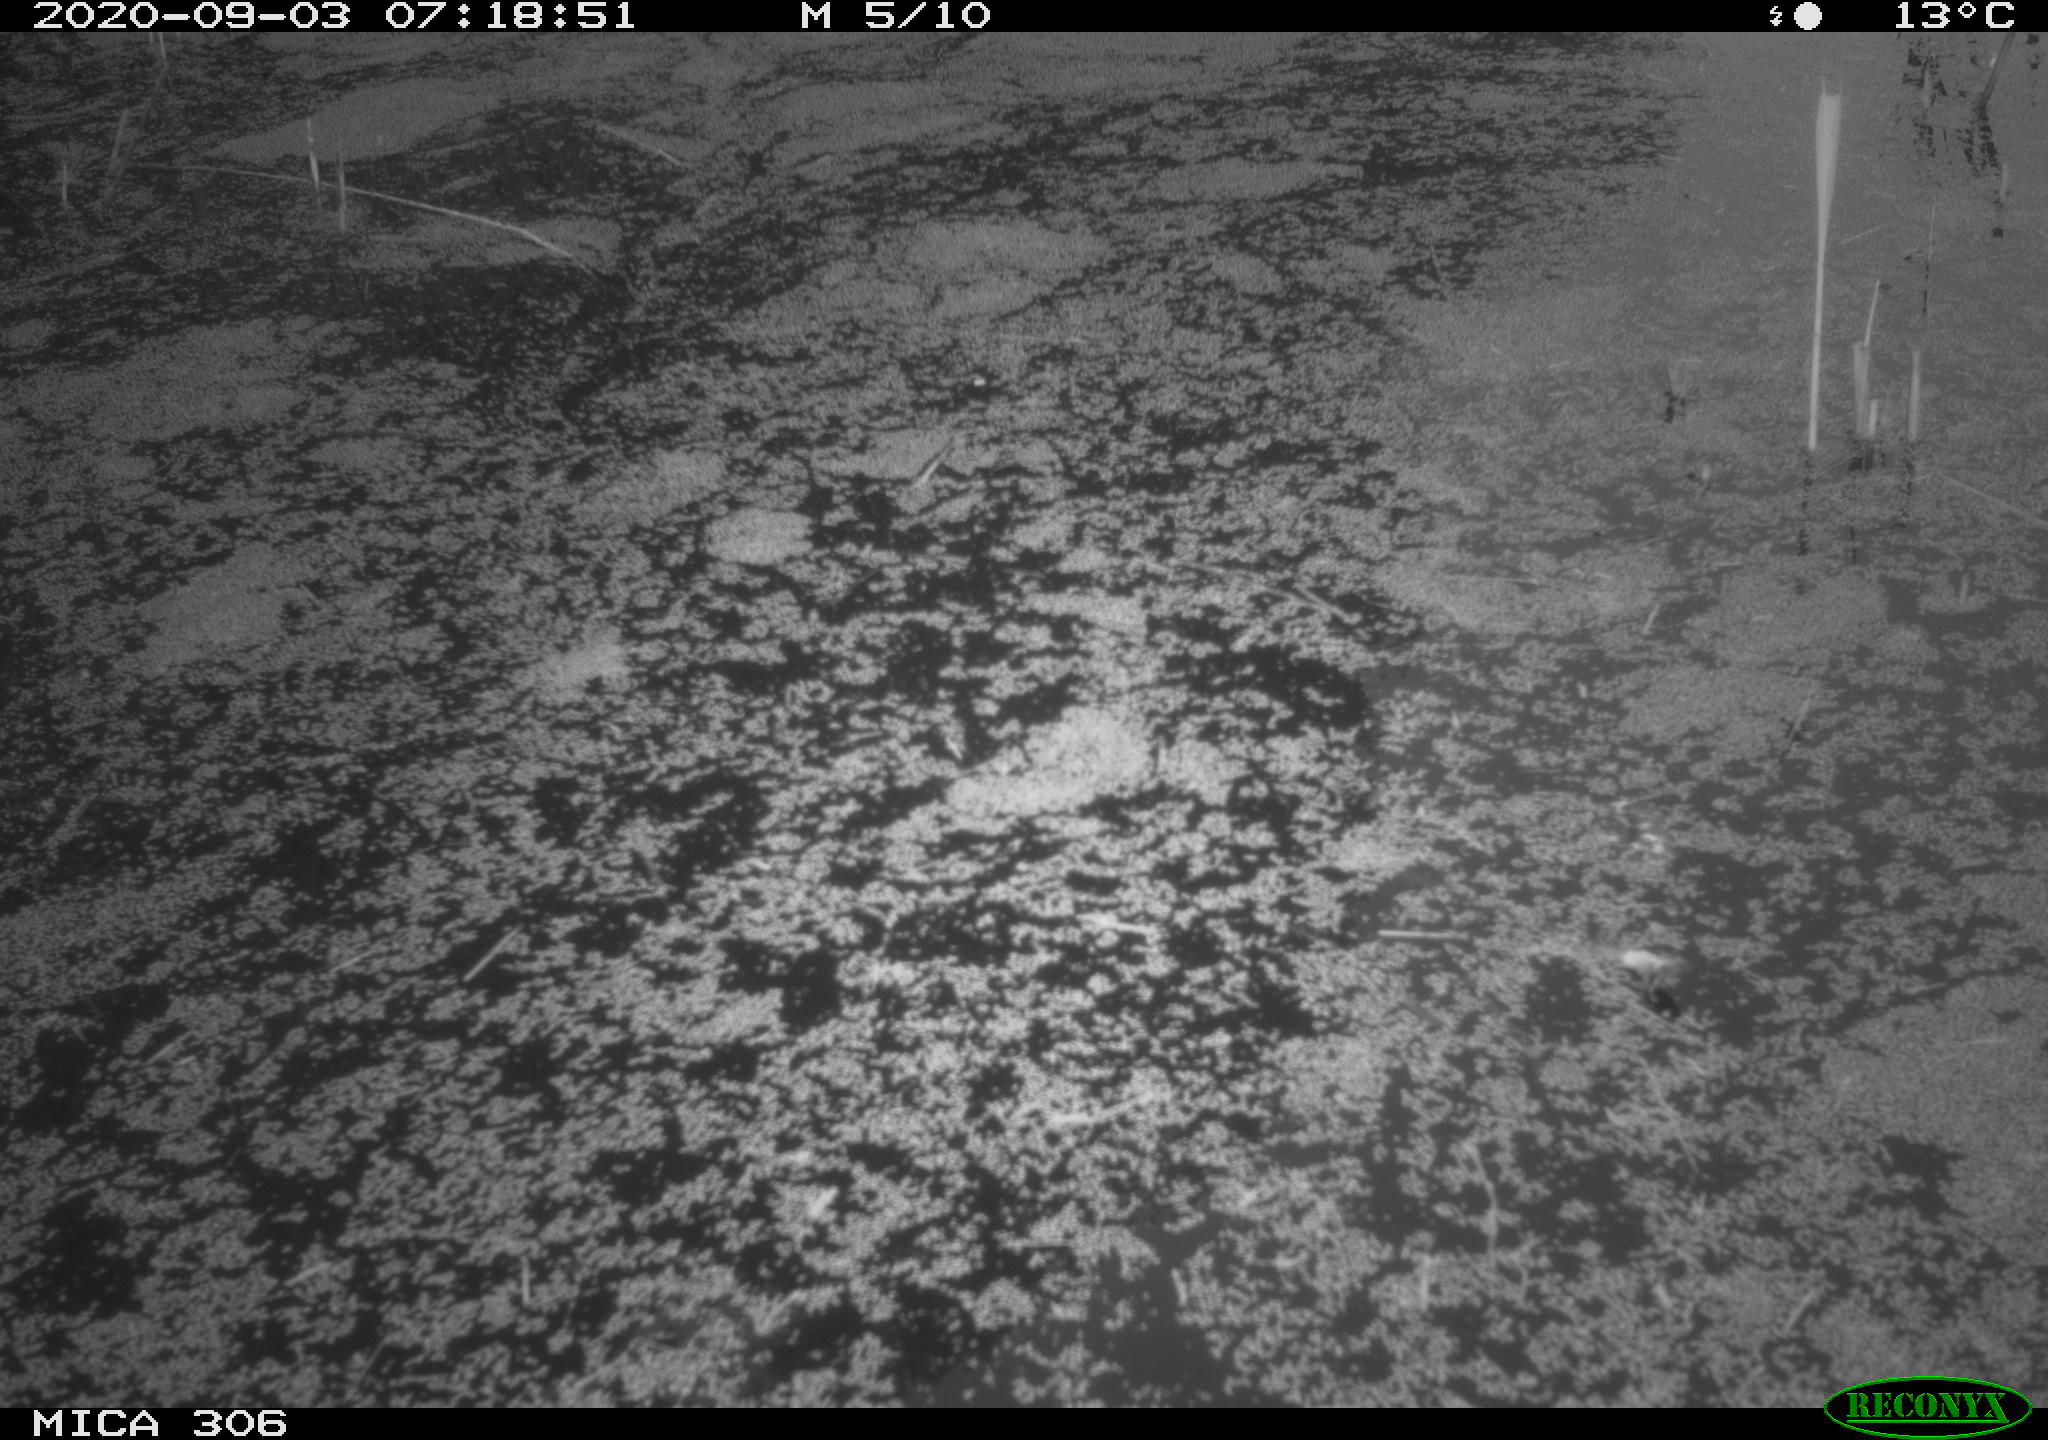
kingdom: Animalia
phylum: Chordata
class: Aves
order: Gruiformes
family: Rallidae
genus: Gallinula
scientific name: Gallinula chloropus
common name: Common moorhen
